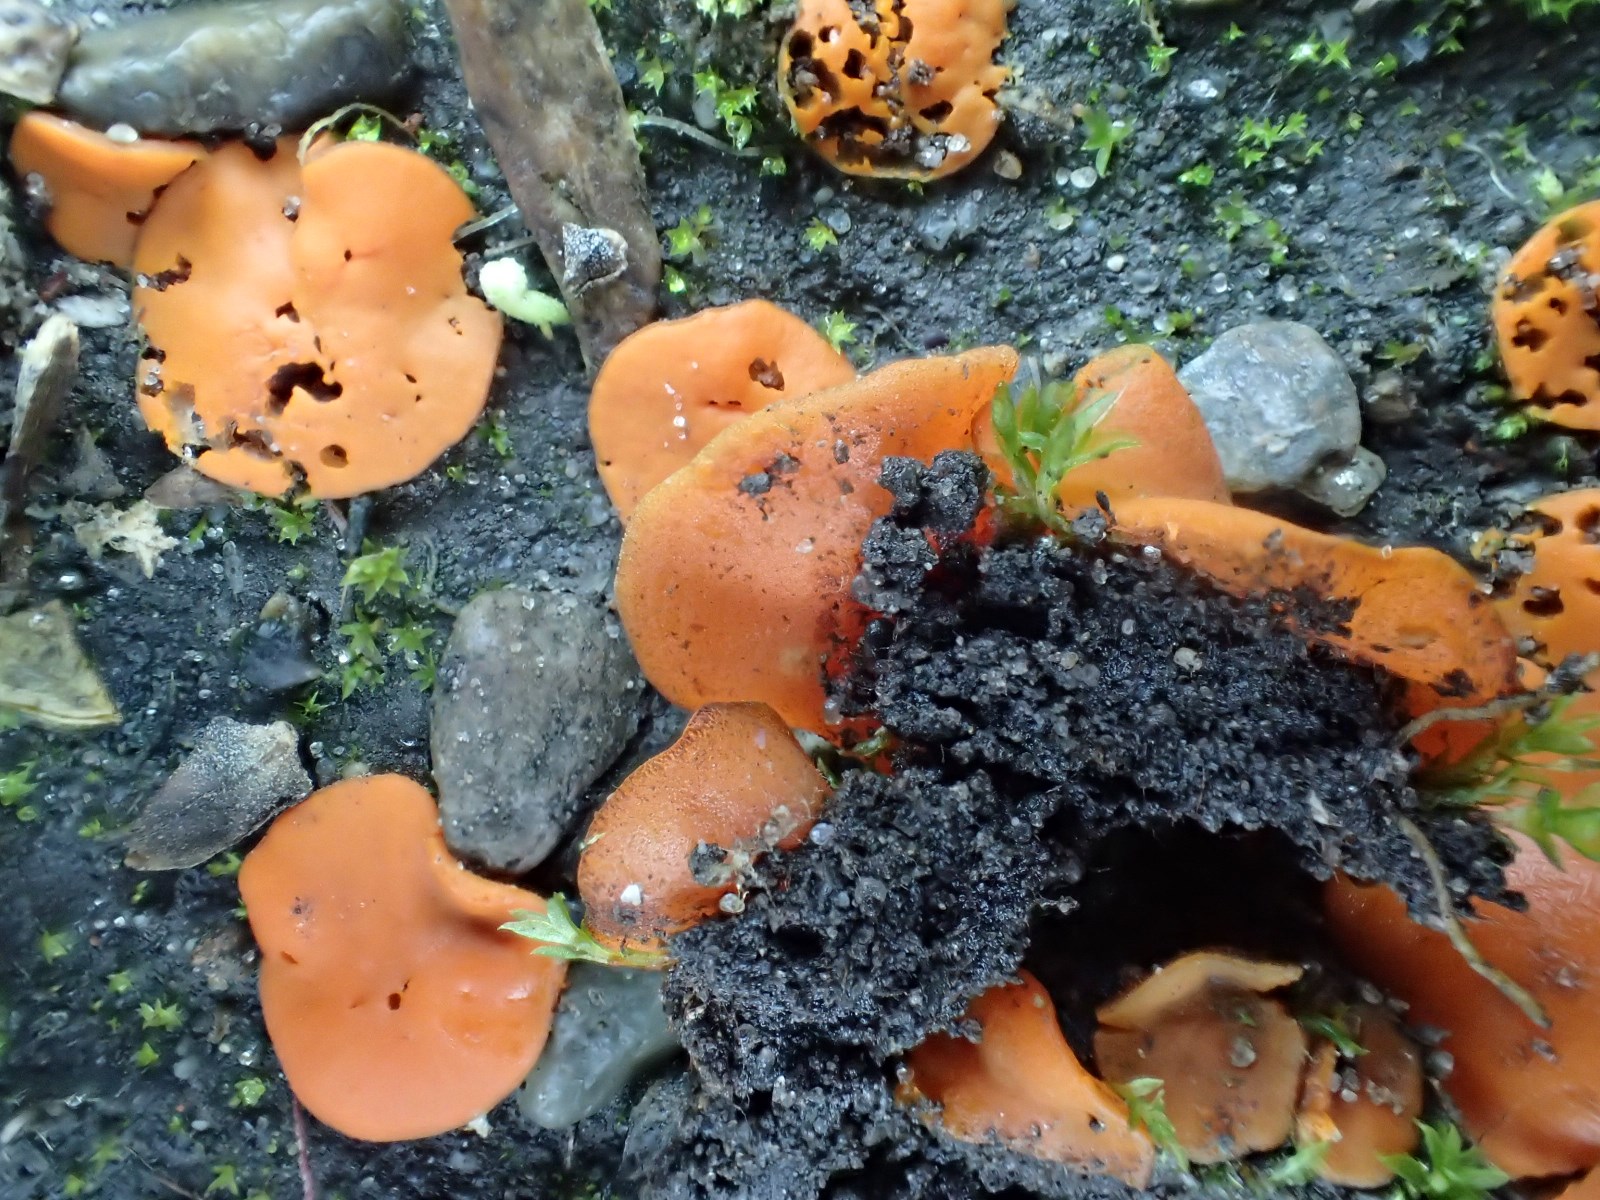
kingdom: Fungi
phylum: Ascomycota
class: Pezizomycetes
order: Pezizales
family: Pyronemataceae
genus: Melastiza
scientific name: Melastiza cornubiensis
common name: mørkrandet rødbæger
